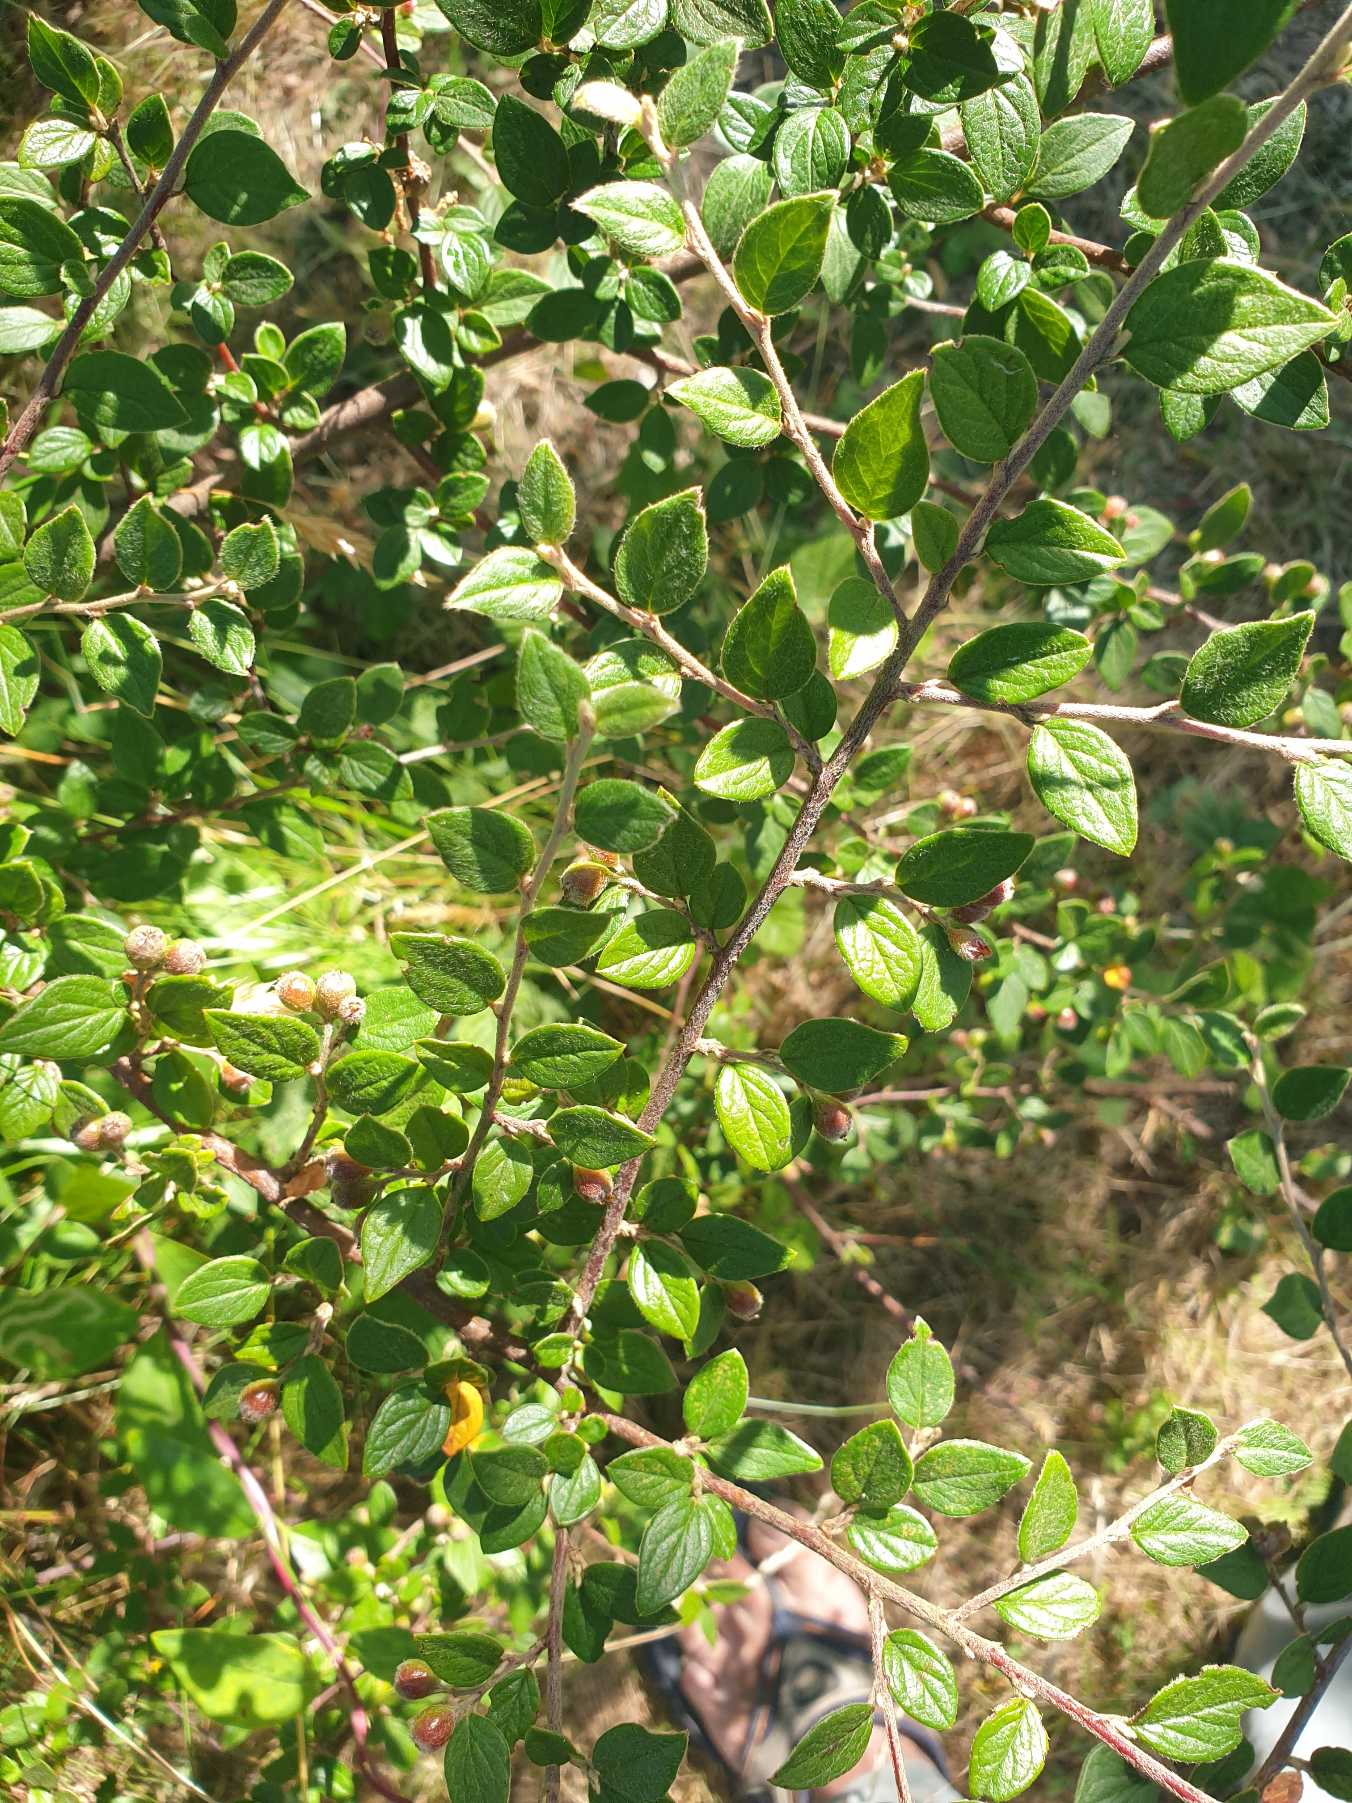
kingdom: Plantae
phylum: Tracheophyta
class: Magnoliopsida
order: Rosales
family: Rosaceae
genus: Cotoneaster
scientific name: Cotoneaster dielsianus
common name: Kinesisk dværgmispel
